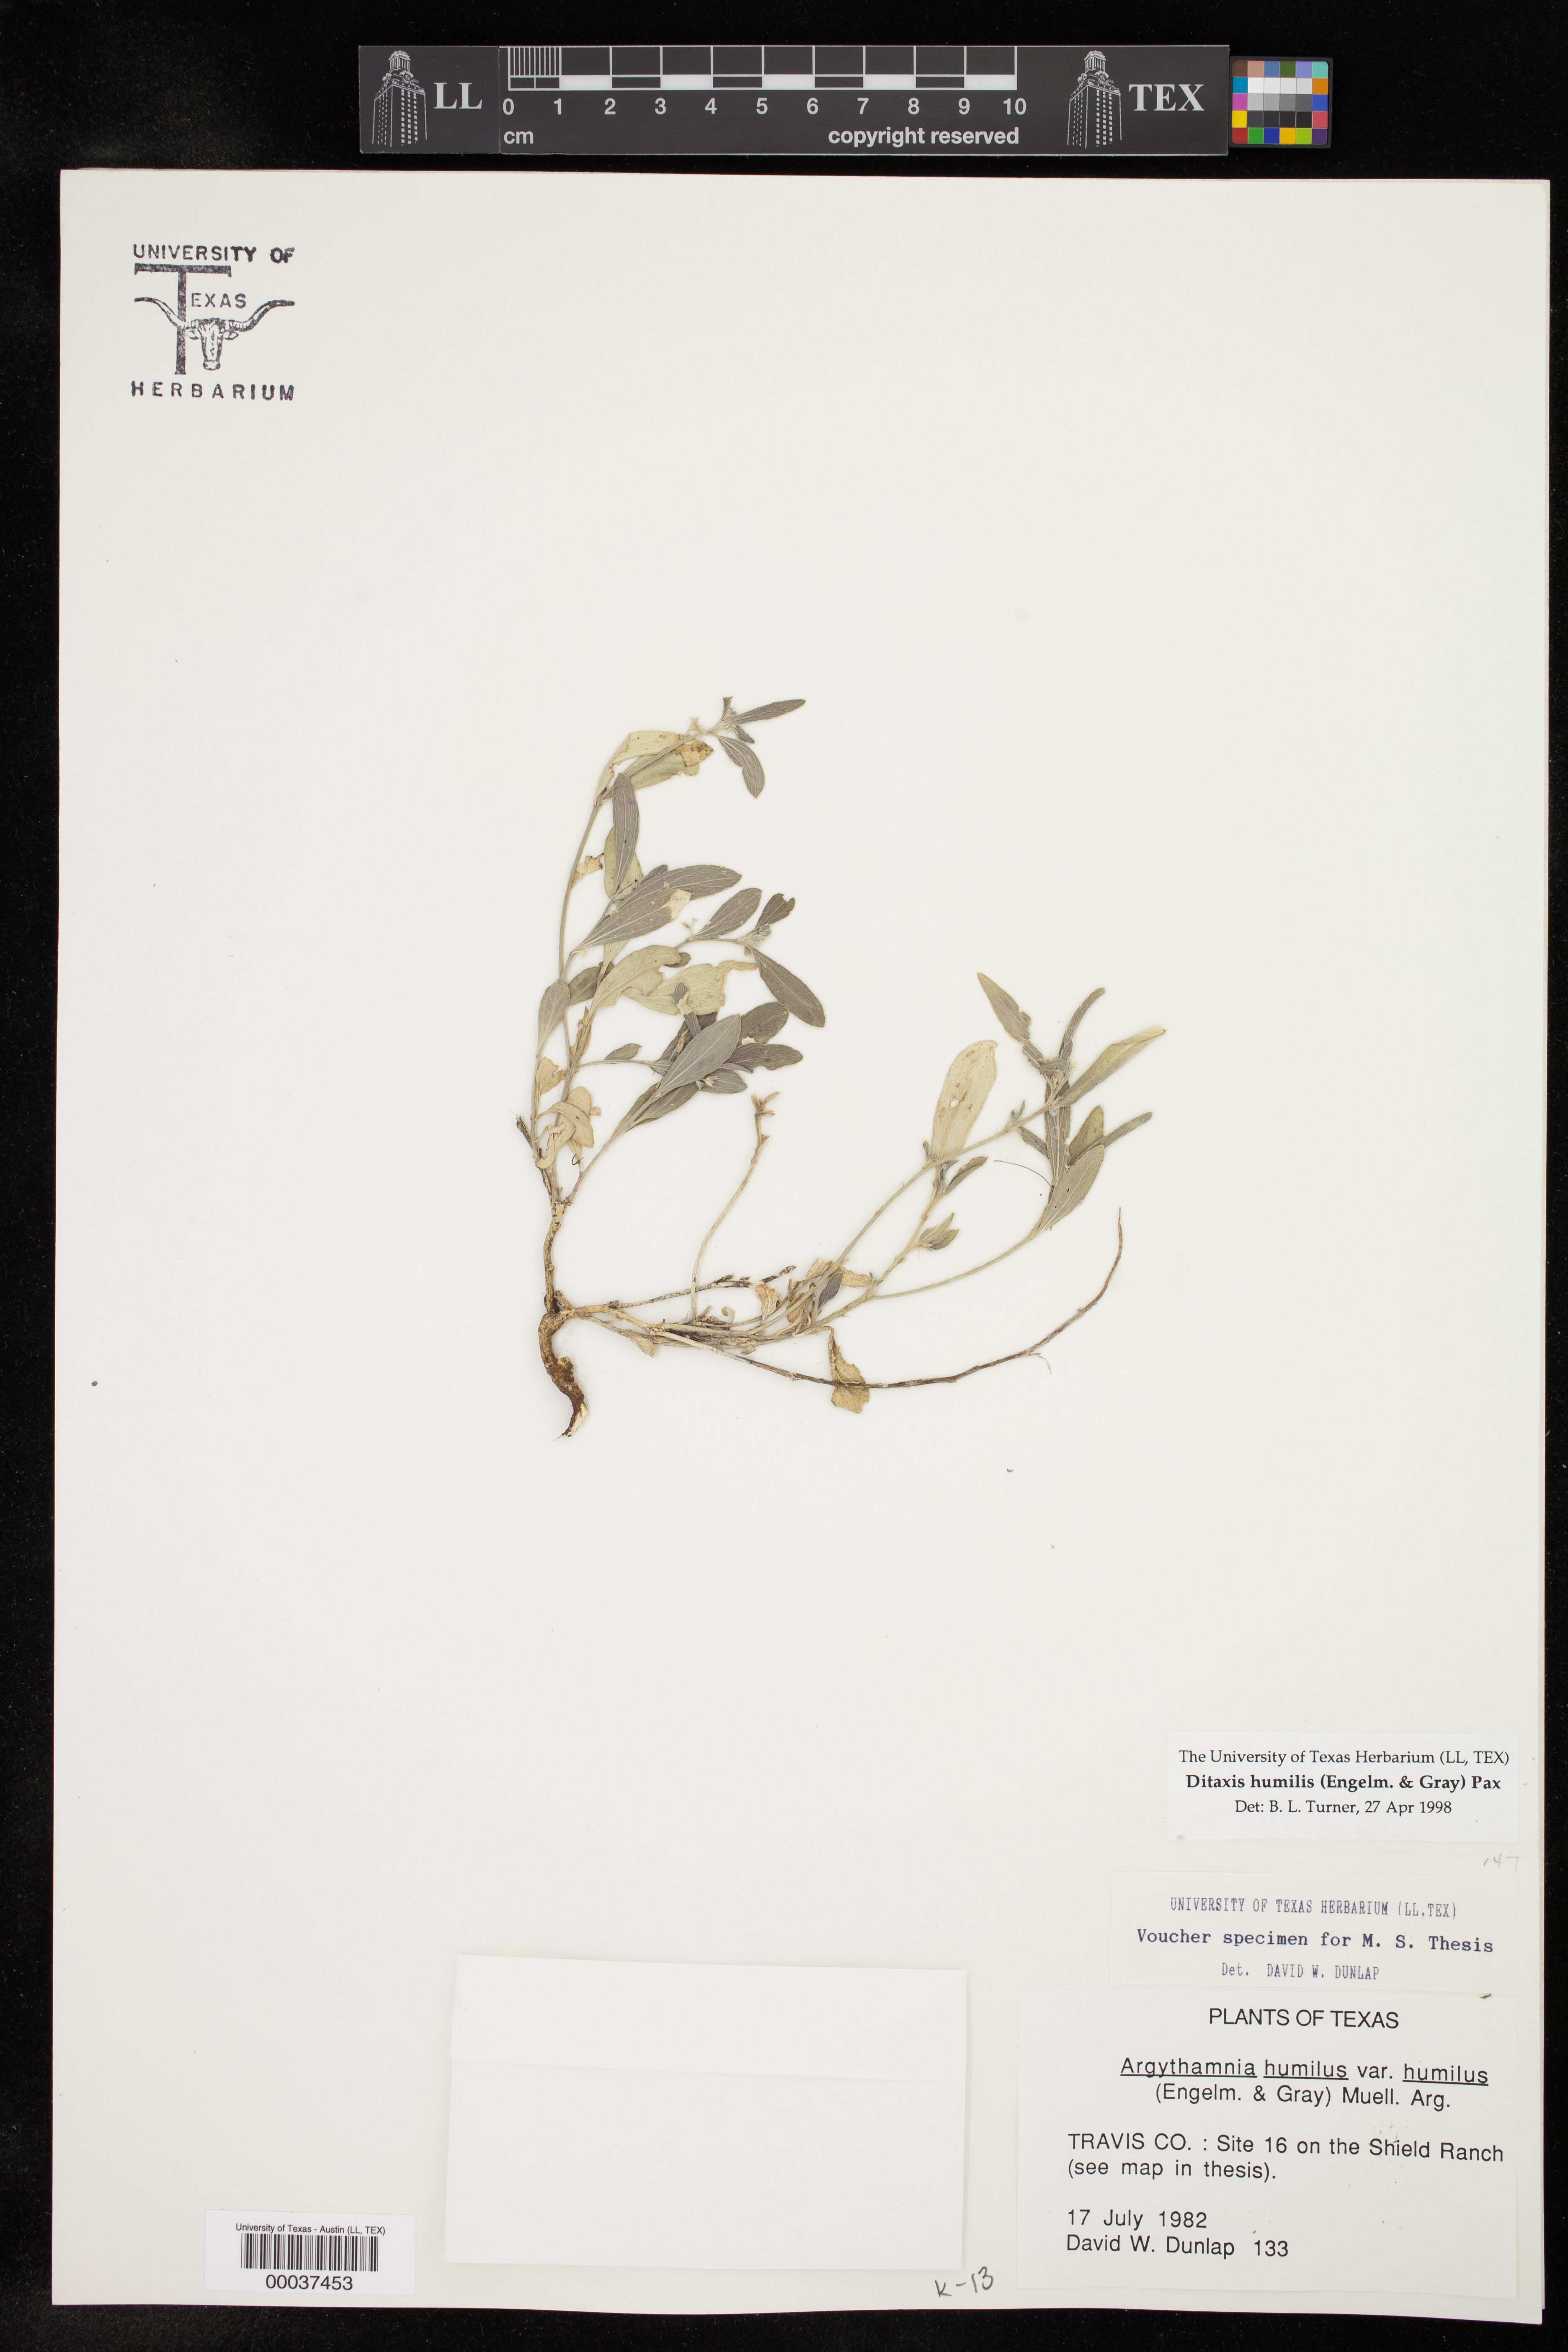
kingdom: Plantae
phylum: Tracheophyta
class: Magnoliopsida
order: Malpighiales
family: Euphorbiaceae
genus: Ditaxis
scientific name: Ditaxis humilis
